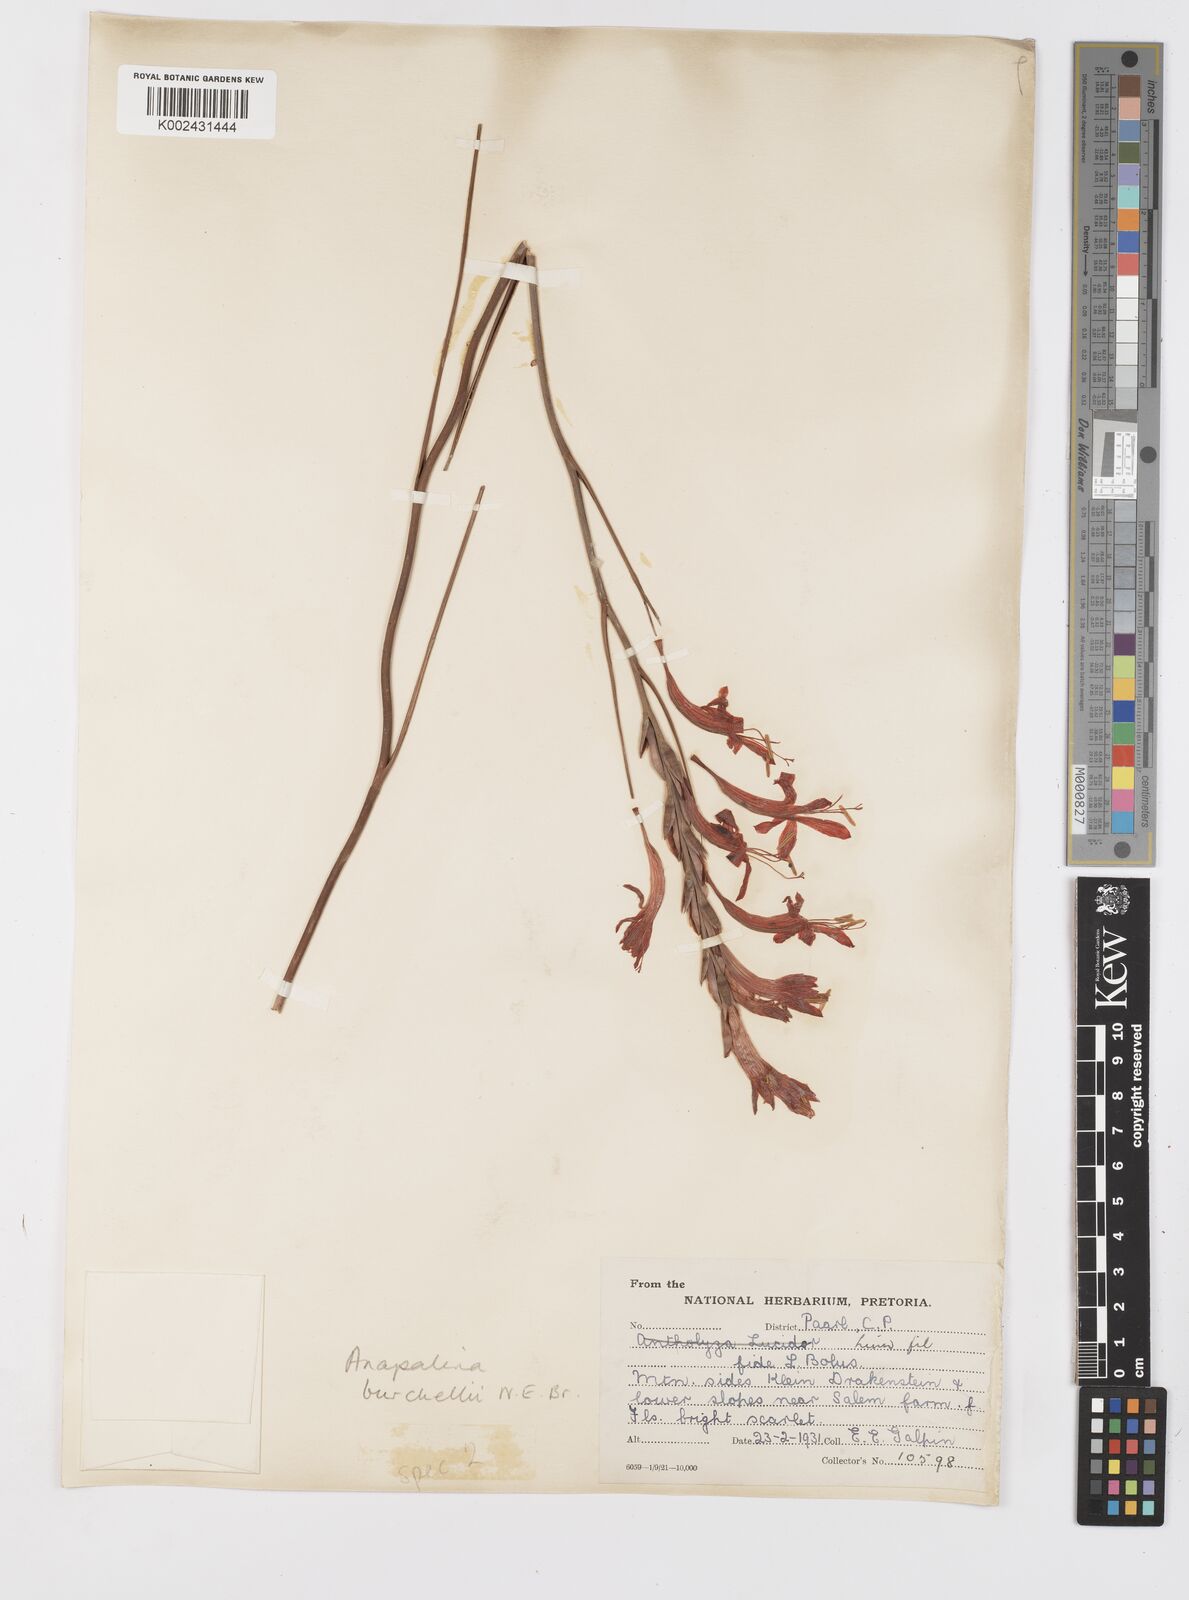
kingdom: Plantae
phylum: Tracheophyta
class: Liliopsida
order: Asparagales
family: Iridaceae
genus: Tritoniopsis
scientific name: Tritoniopsis triticea
